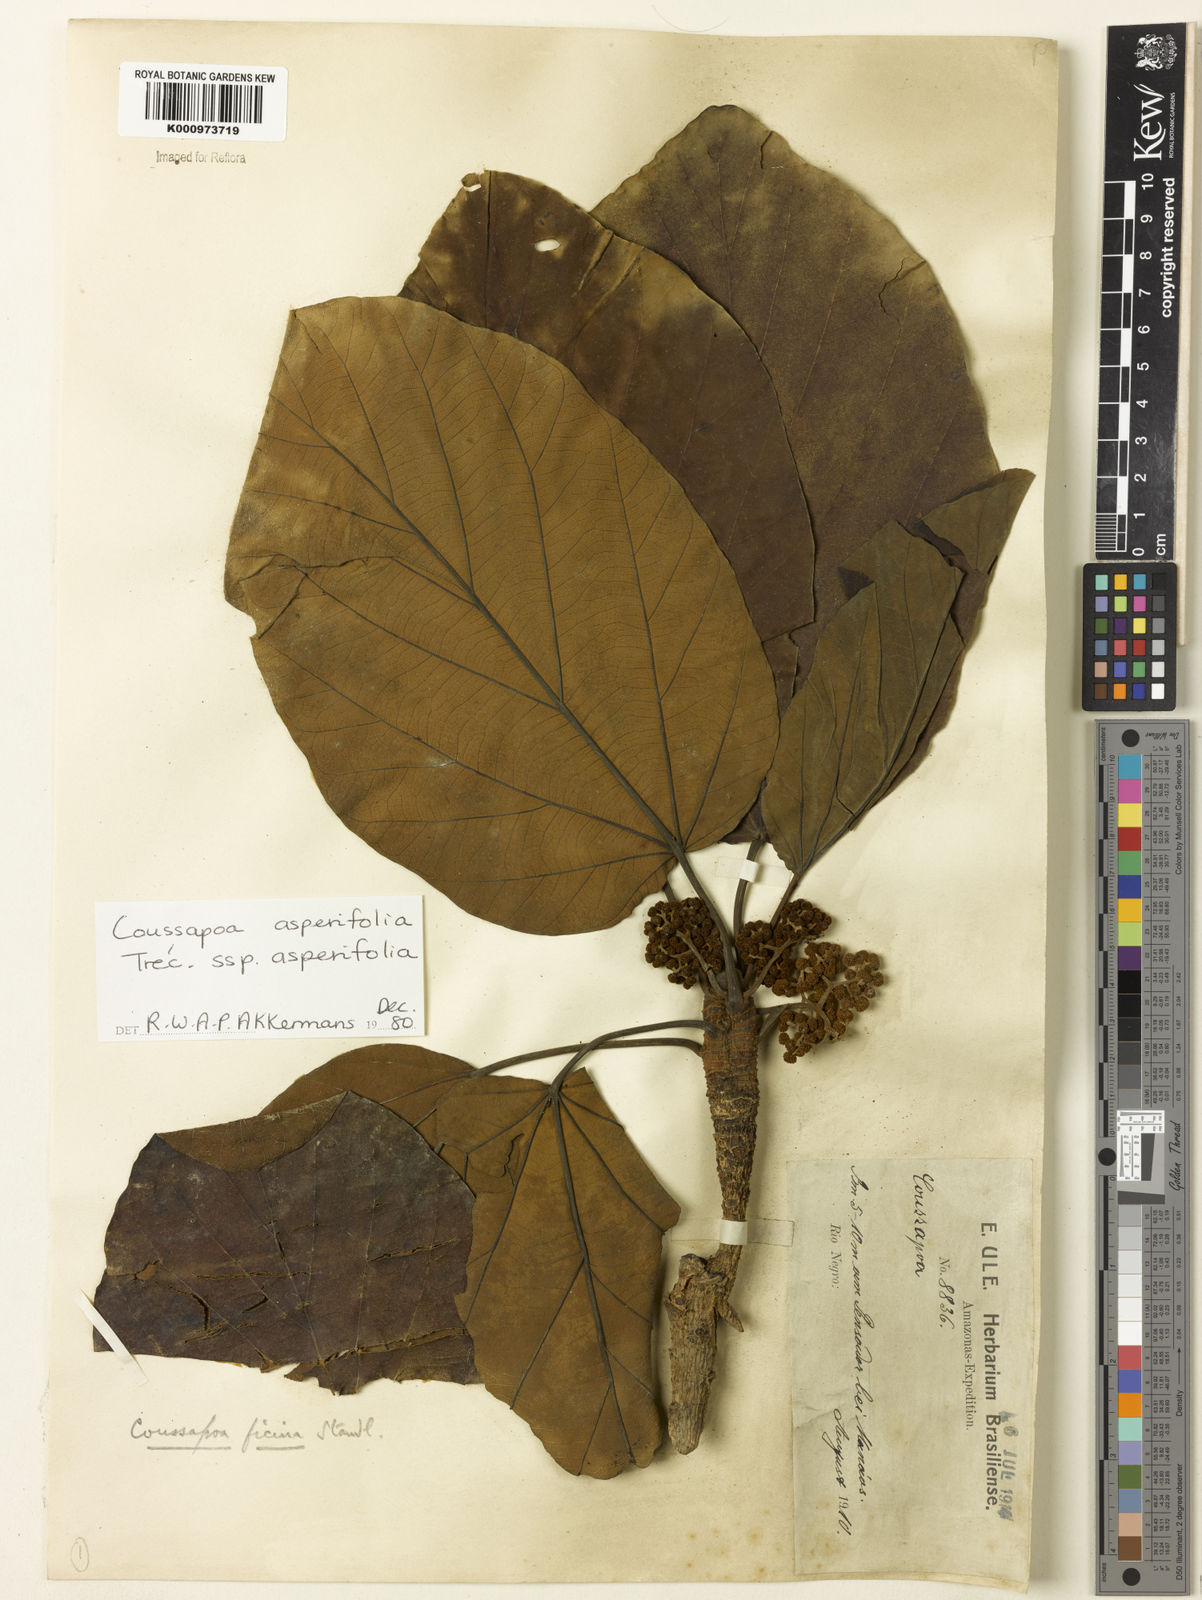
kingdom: Plantae
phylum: Tracheophyta
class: Magnoliopsida
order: Rosales
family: Urticaceae
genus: Coussapoa
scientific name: Coussapoa
